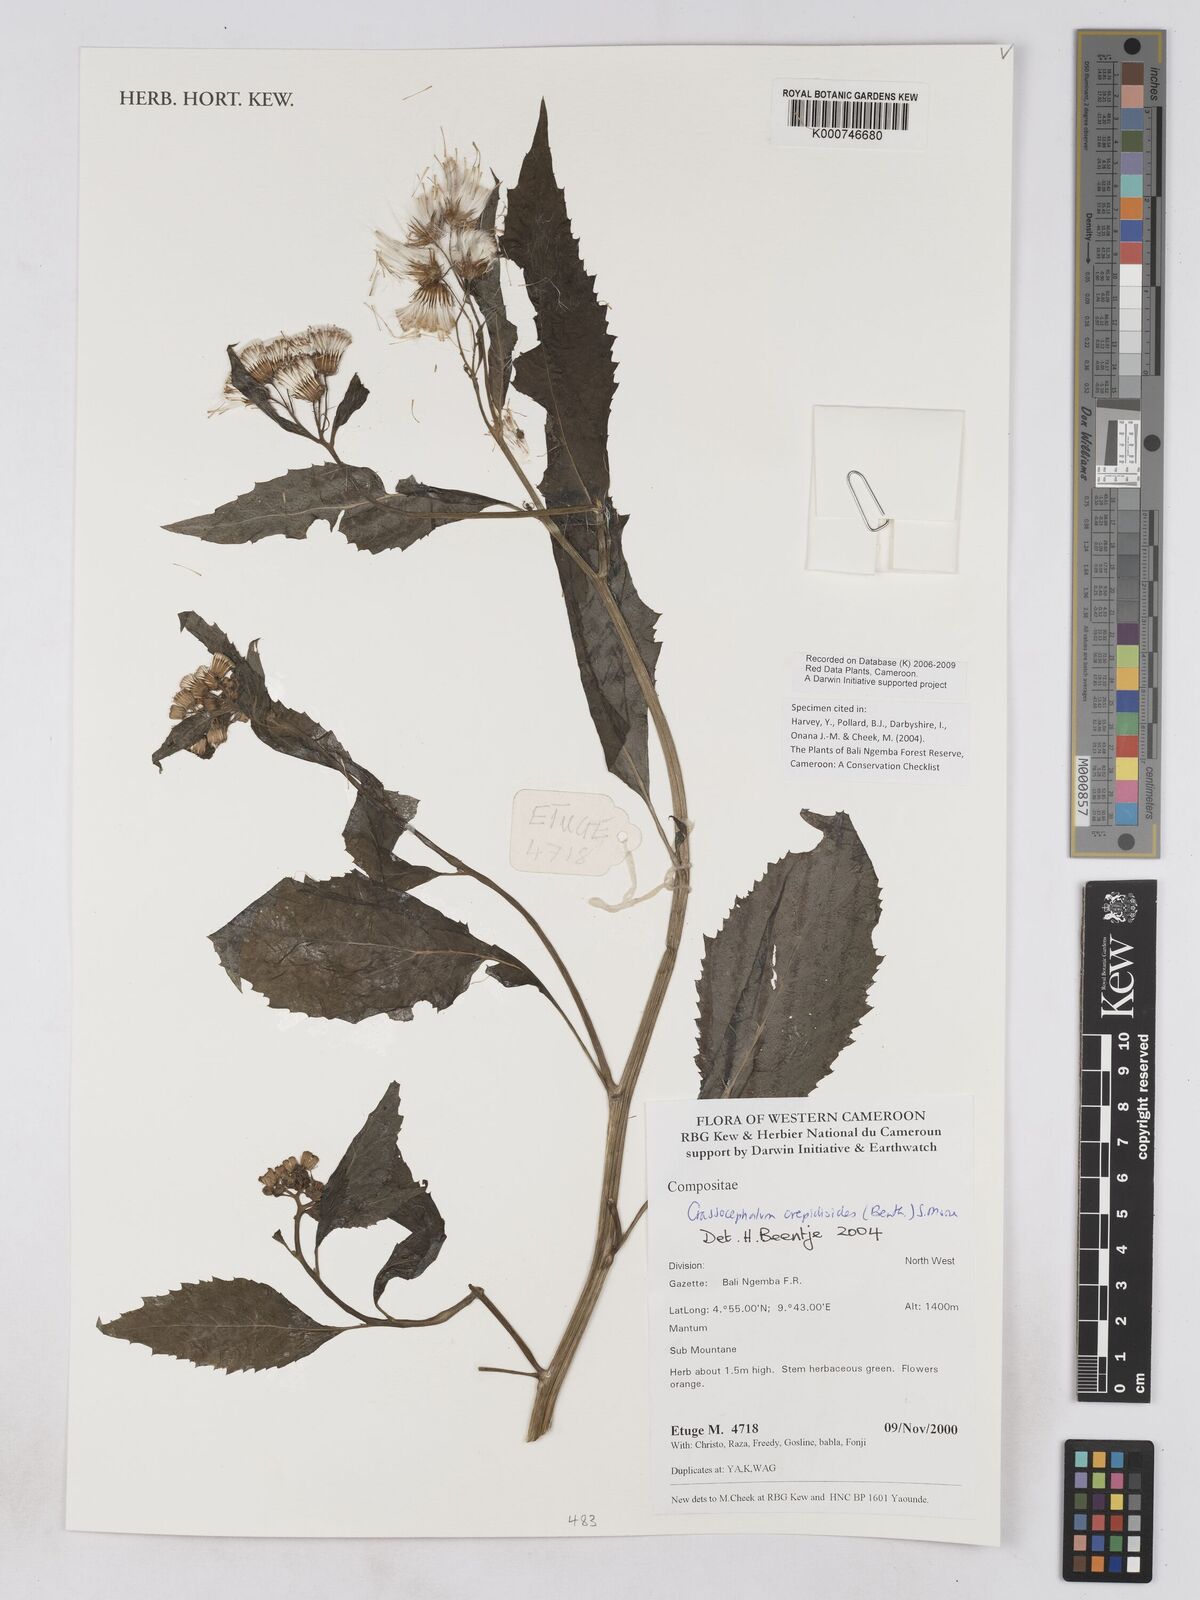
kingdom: Plantae
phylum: Tracheophyta
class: Magnoliopsida
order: Asterales
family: Asteraceae
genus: Crassocephalum
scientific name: Crassocephalum crepidioides
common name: Redflower ragleaf
